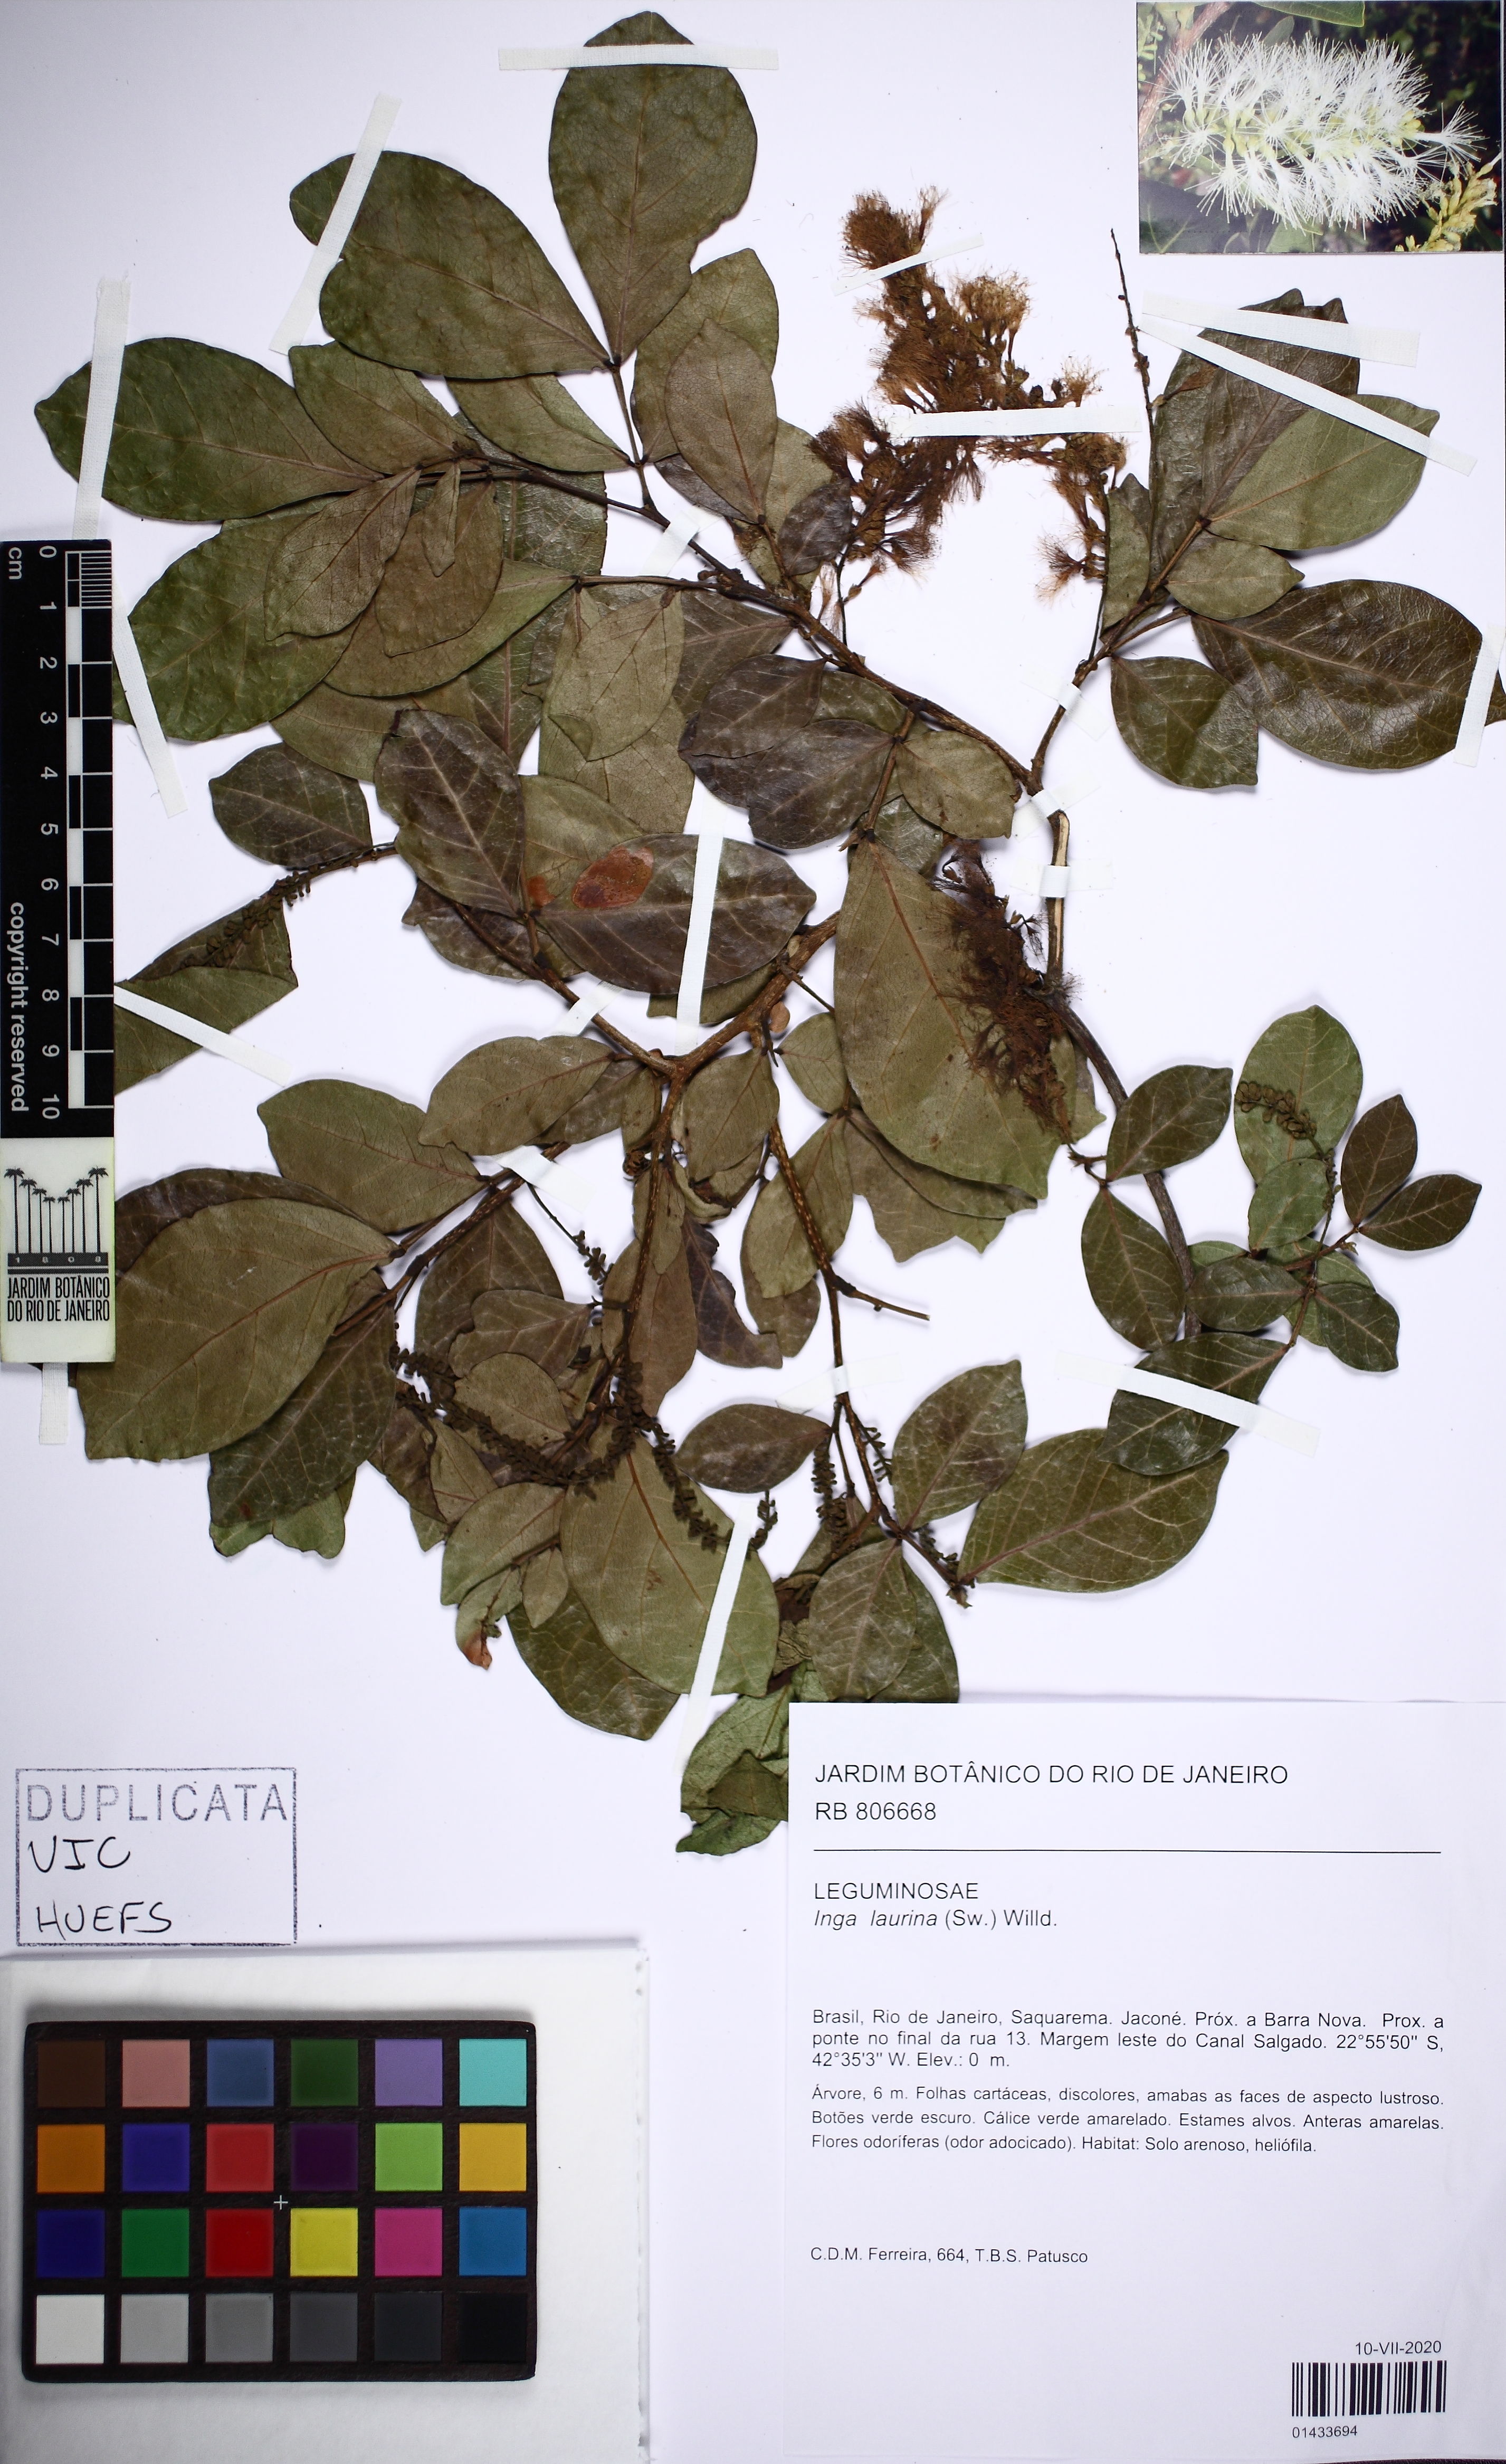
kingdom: Plantae
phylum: Tracheophyta
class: Magnoliopsida
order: Fabales
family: Fabaceae
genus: Inga
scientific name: Inga laurina
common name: Red wood
